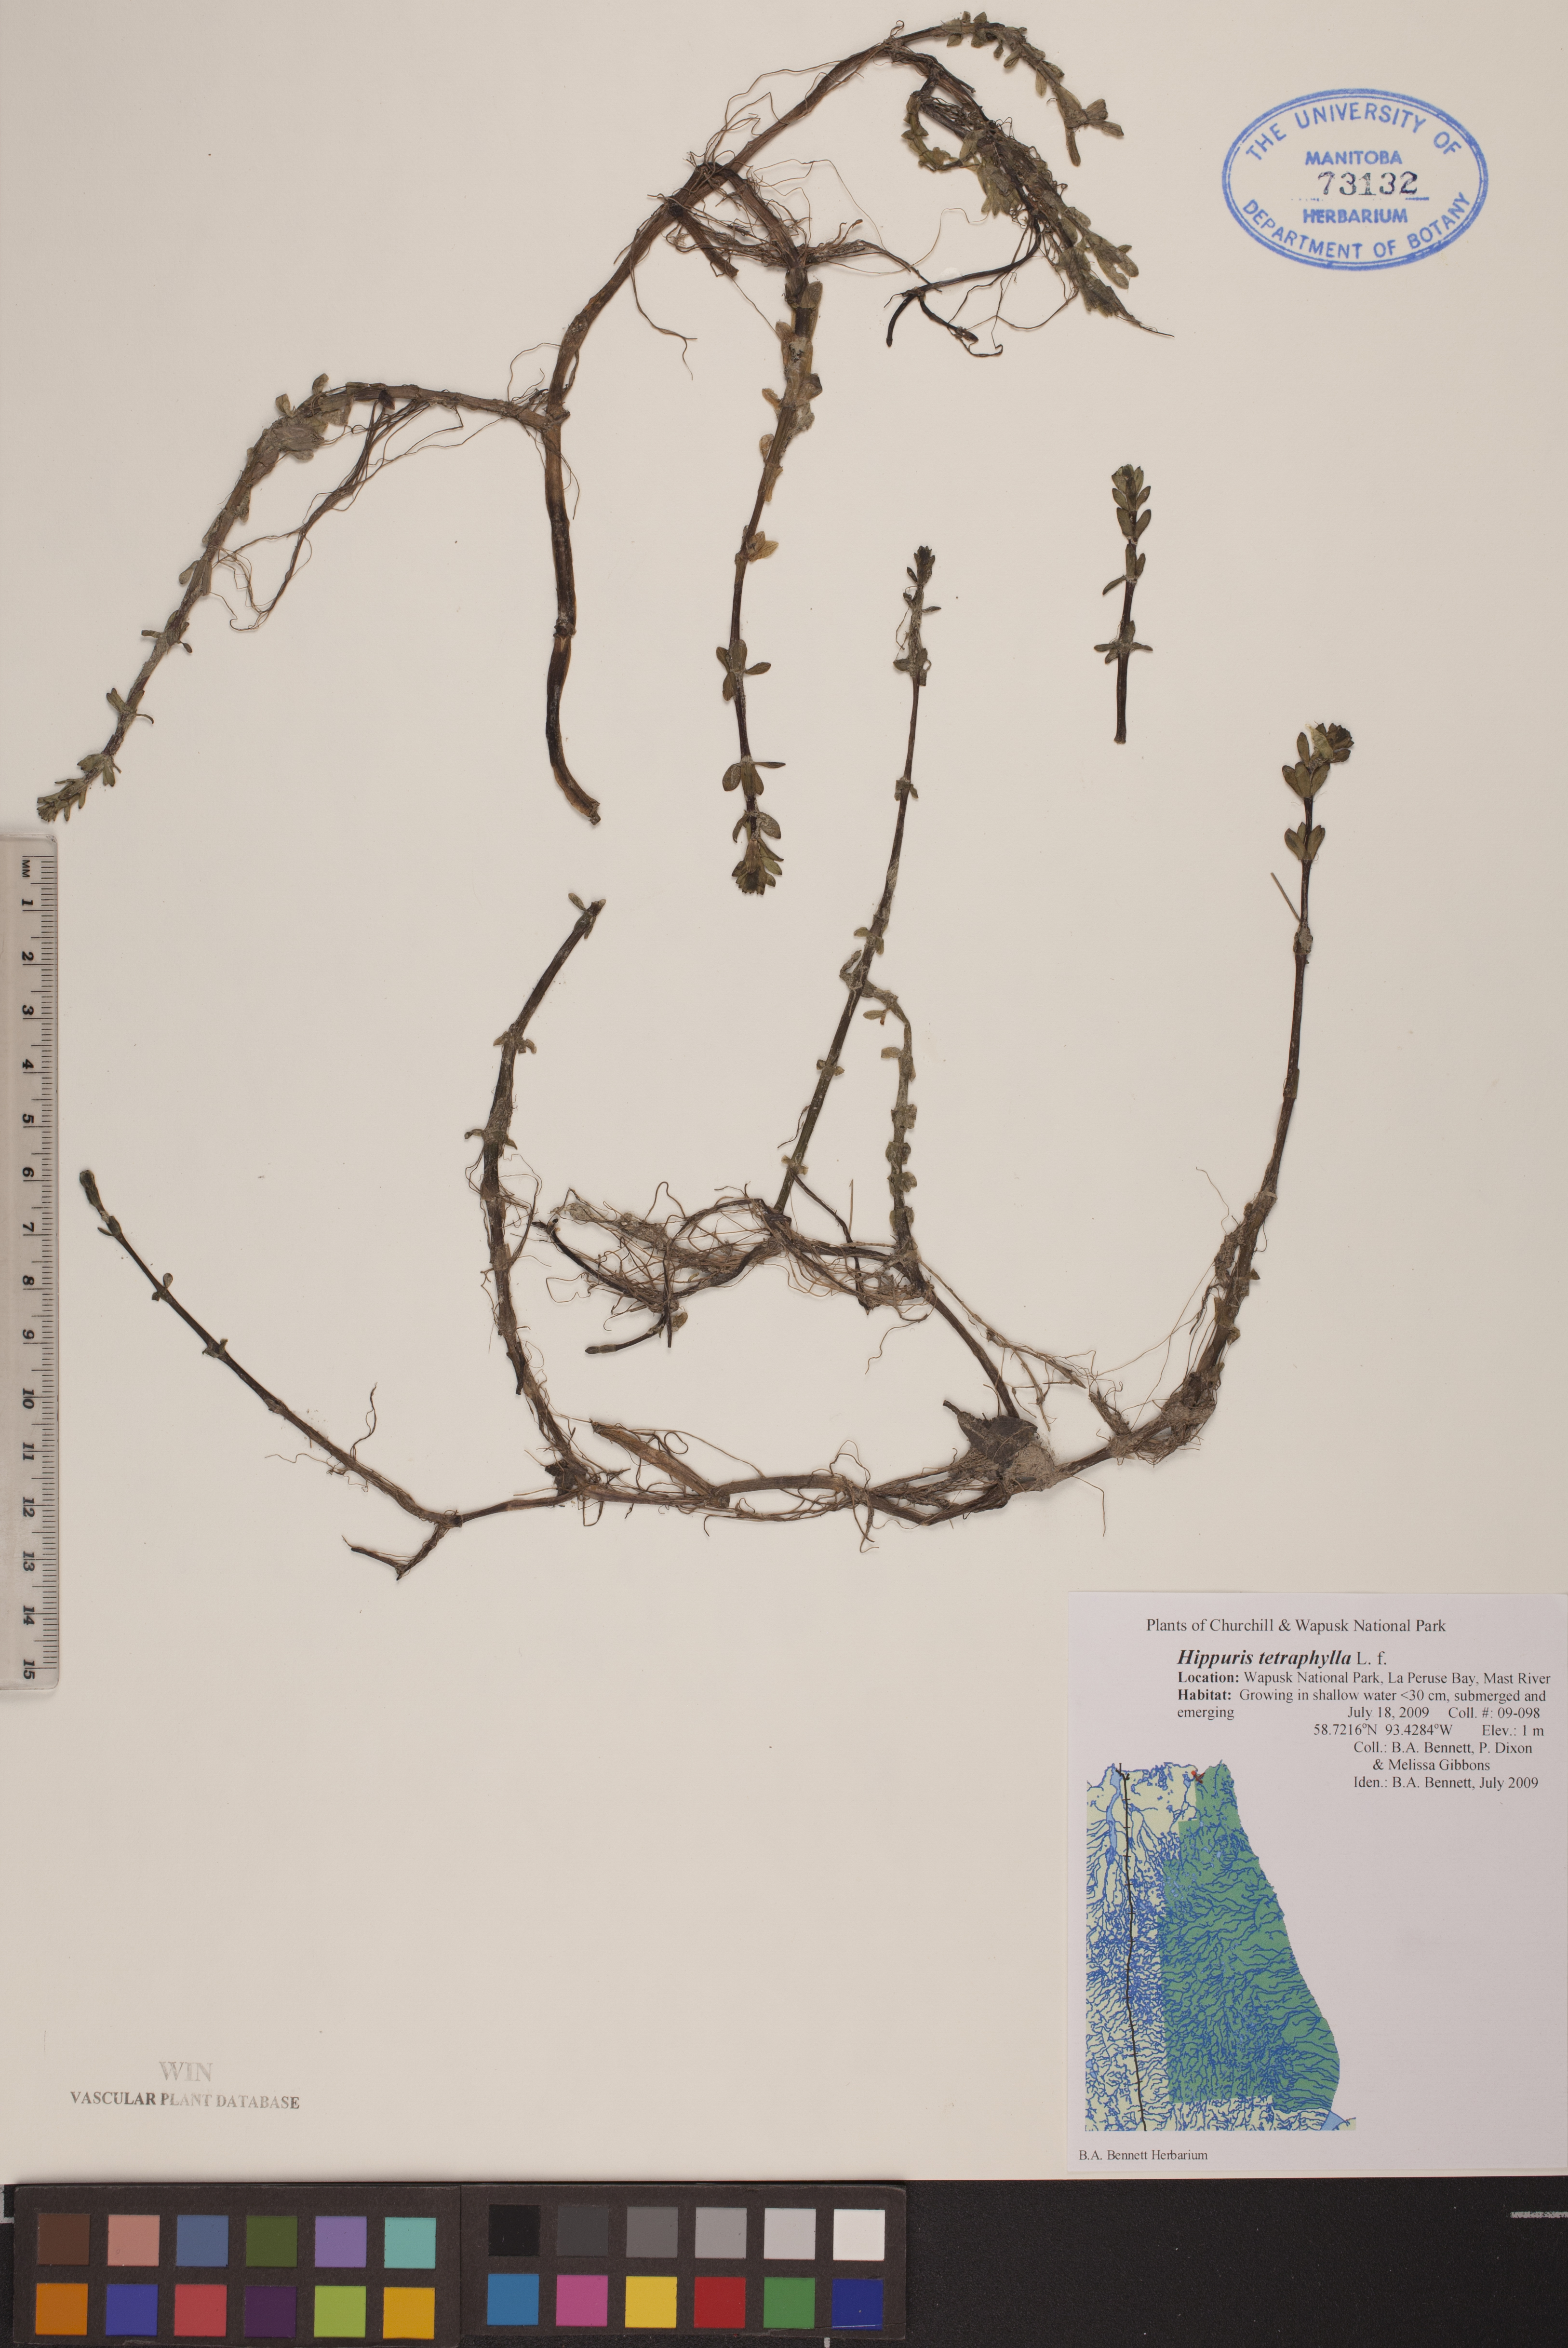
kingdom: Plantae
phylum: Tracheophyta
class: Magnoliopsida
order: Lamiales
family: Plantaginaceae
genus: Hippuris
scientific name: Hippuris tetraphylla
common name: Four-leaved mare's-tail
